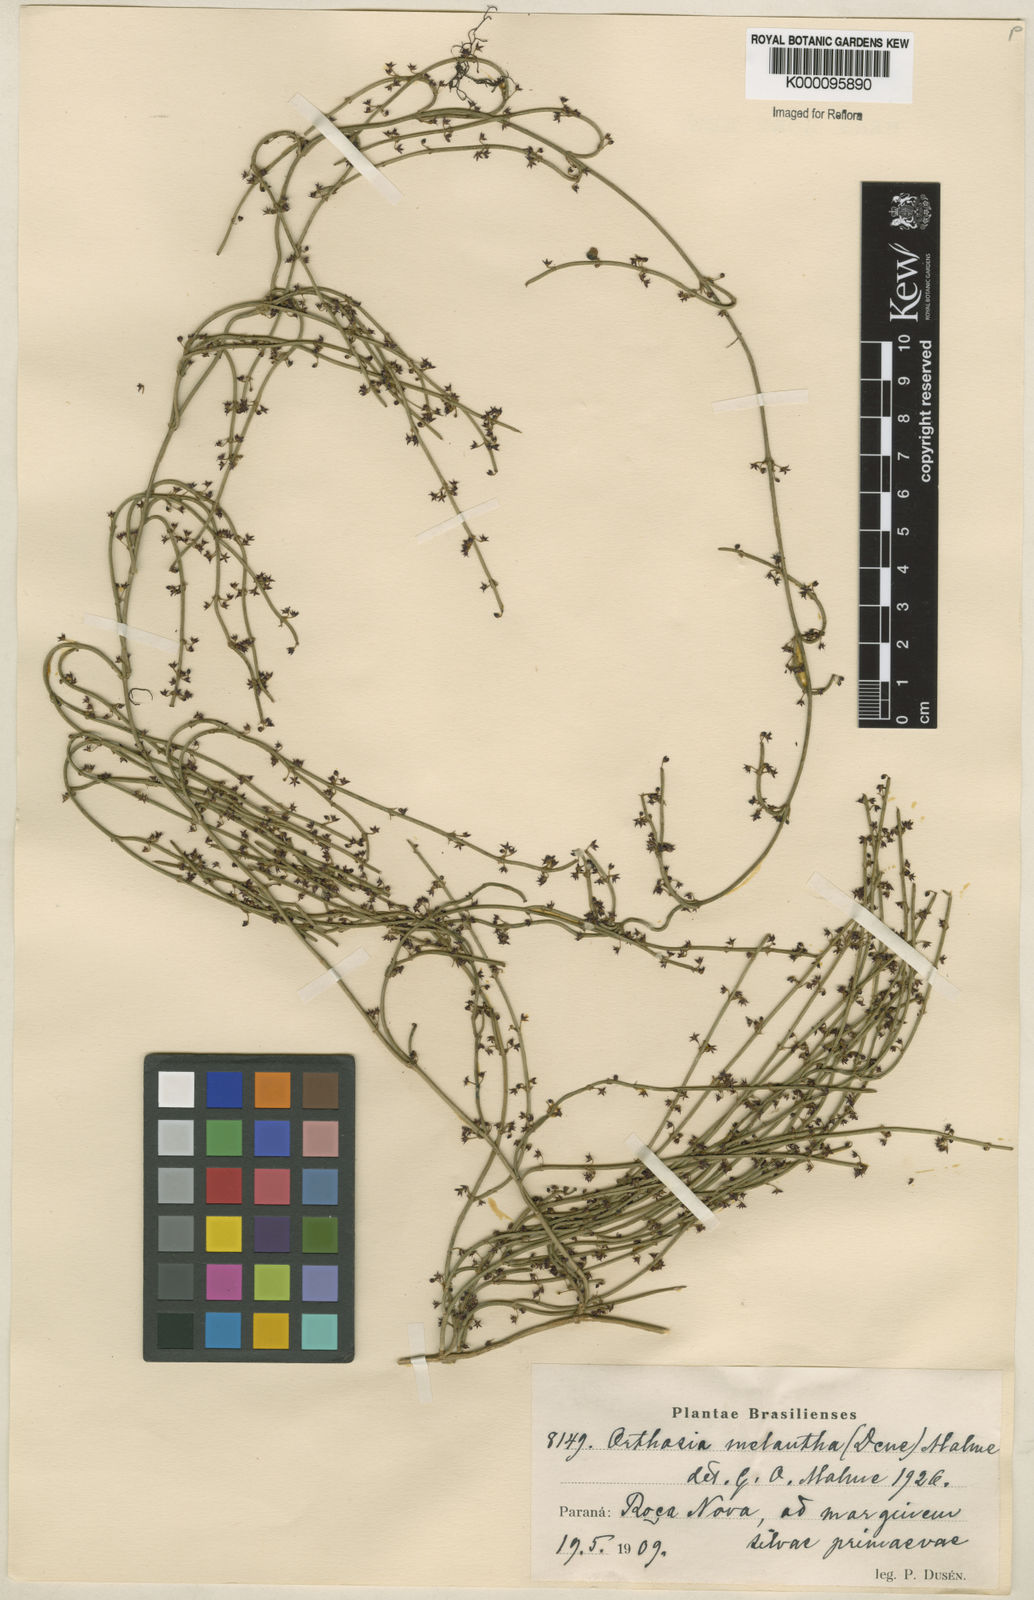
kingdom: Plantae
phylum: Tracheophyta
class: Magnoliopsida
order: Gentianales
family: Apocynaceae
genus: Orthosia
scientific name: Orthosia scoparia
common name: Leafless swallow-wort
